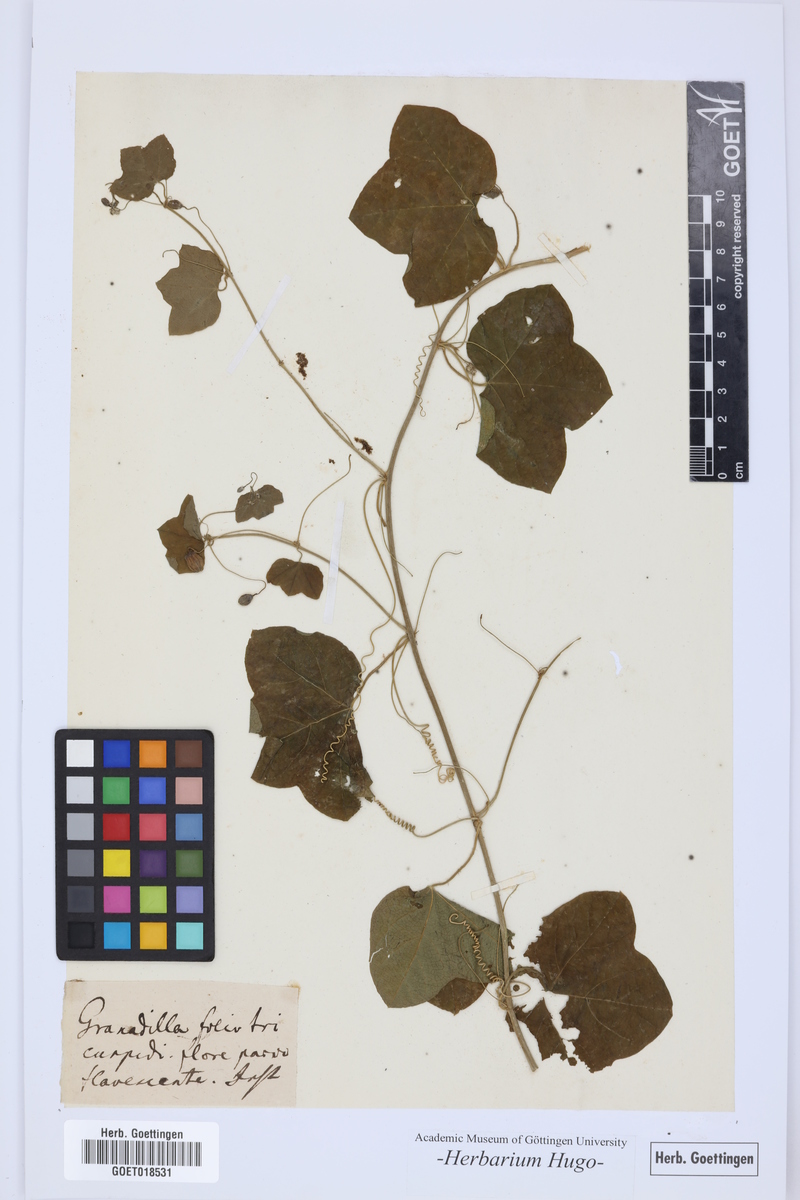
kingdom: Plantae
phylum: Tracheophyta
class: Magnoliopsida
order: Malpighiales
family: Passifloraceae
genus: Granadilla
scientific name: Granadilla
